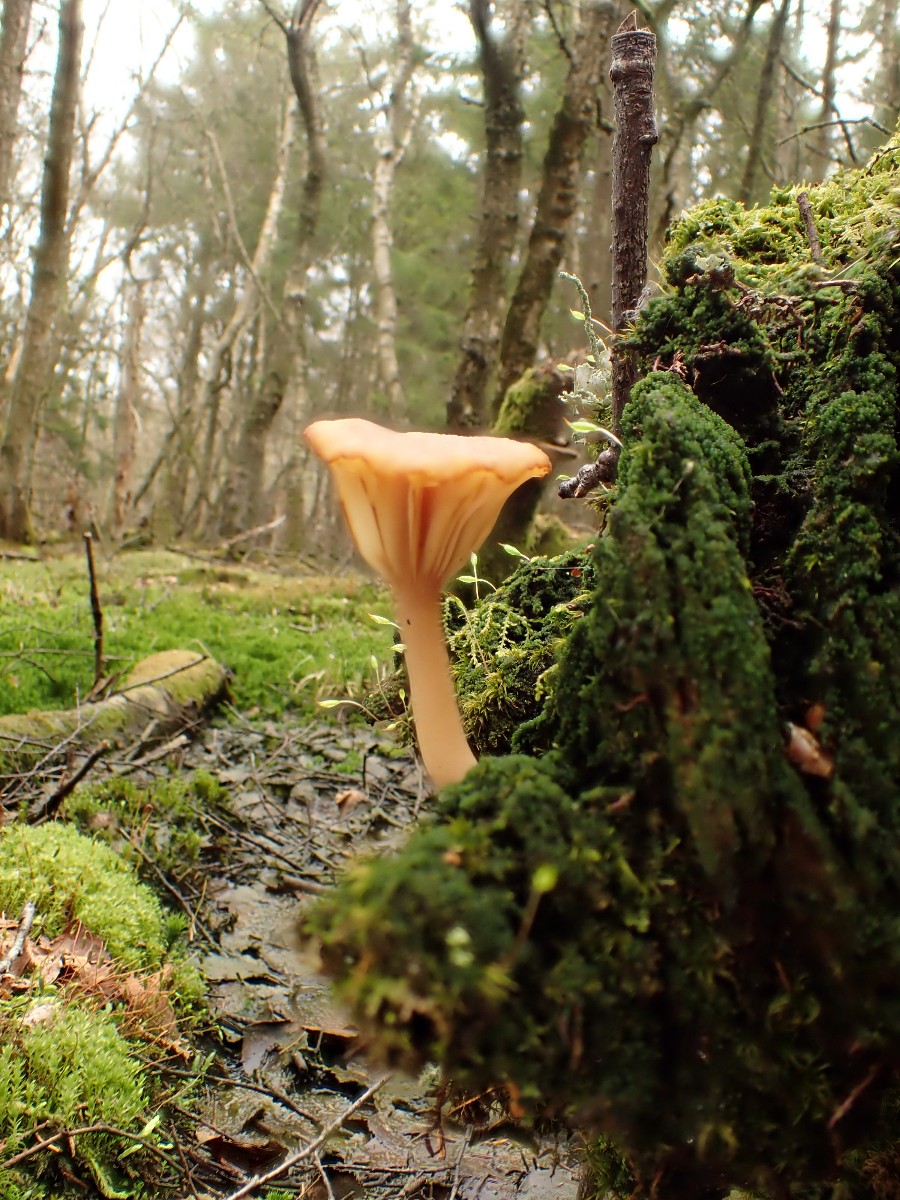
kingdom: Fungi
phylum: Basidiomycota
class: Agaricomycetes
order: Agaricales
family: Hygrophoraceae
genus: Lichenomphalia
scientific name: Lichenomphalia umbellifera
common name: tørve-lavhat
